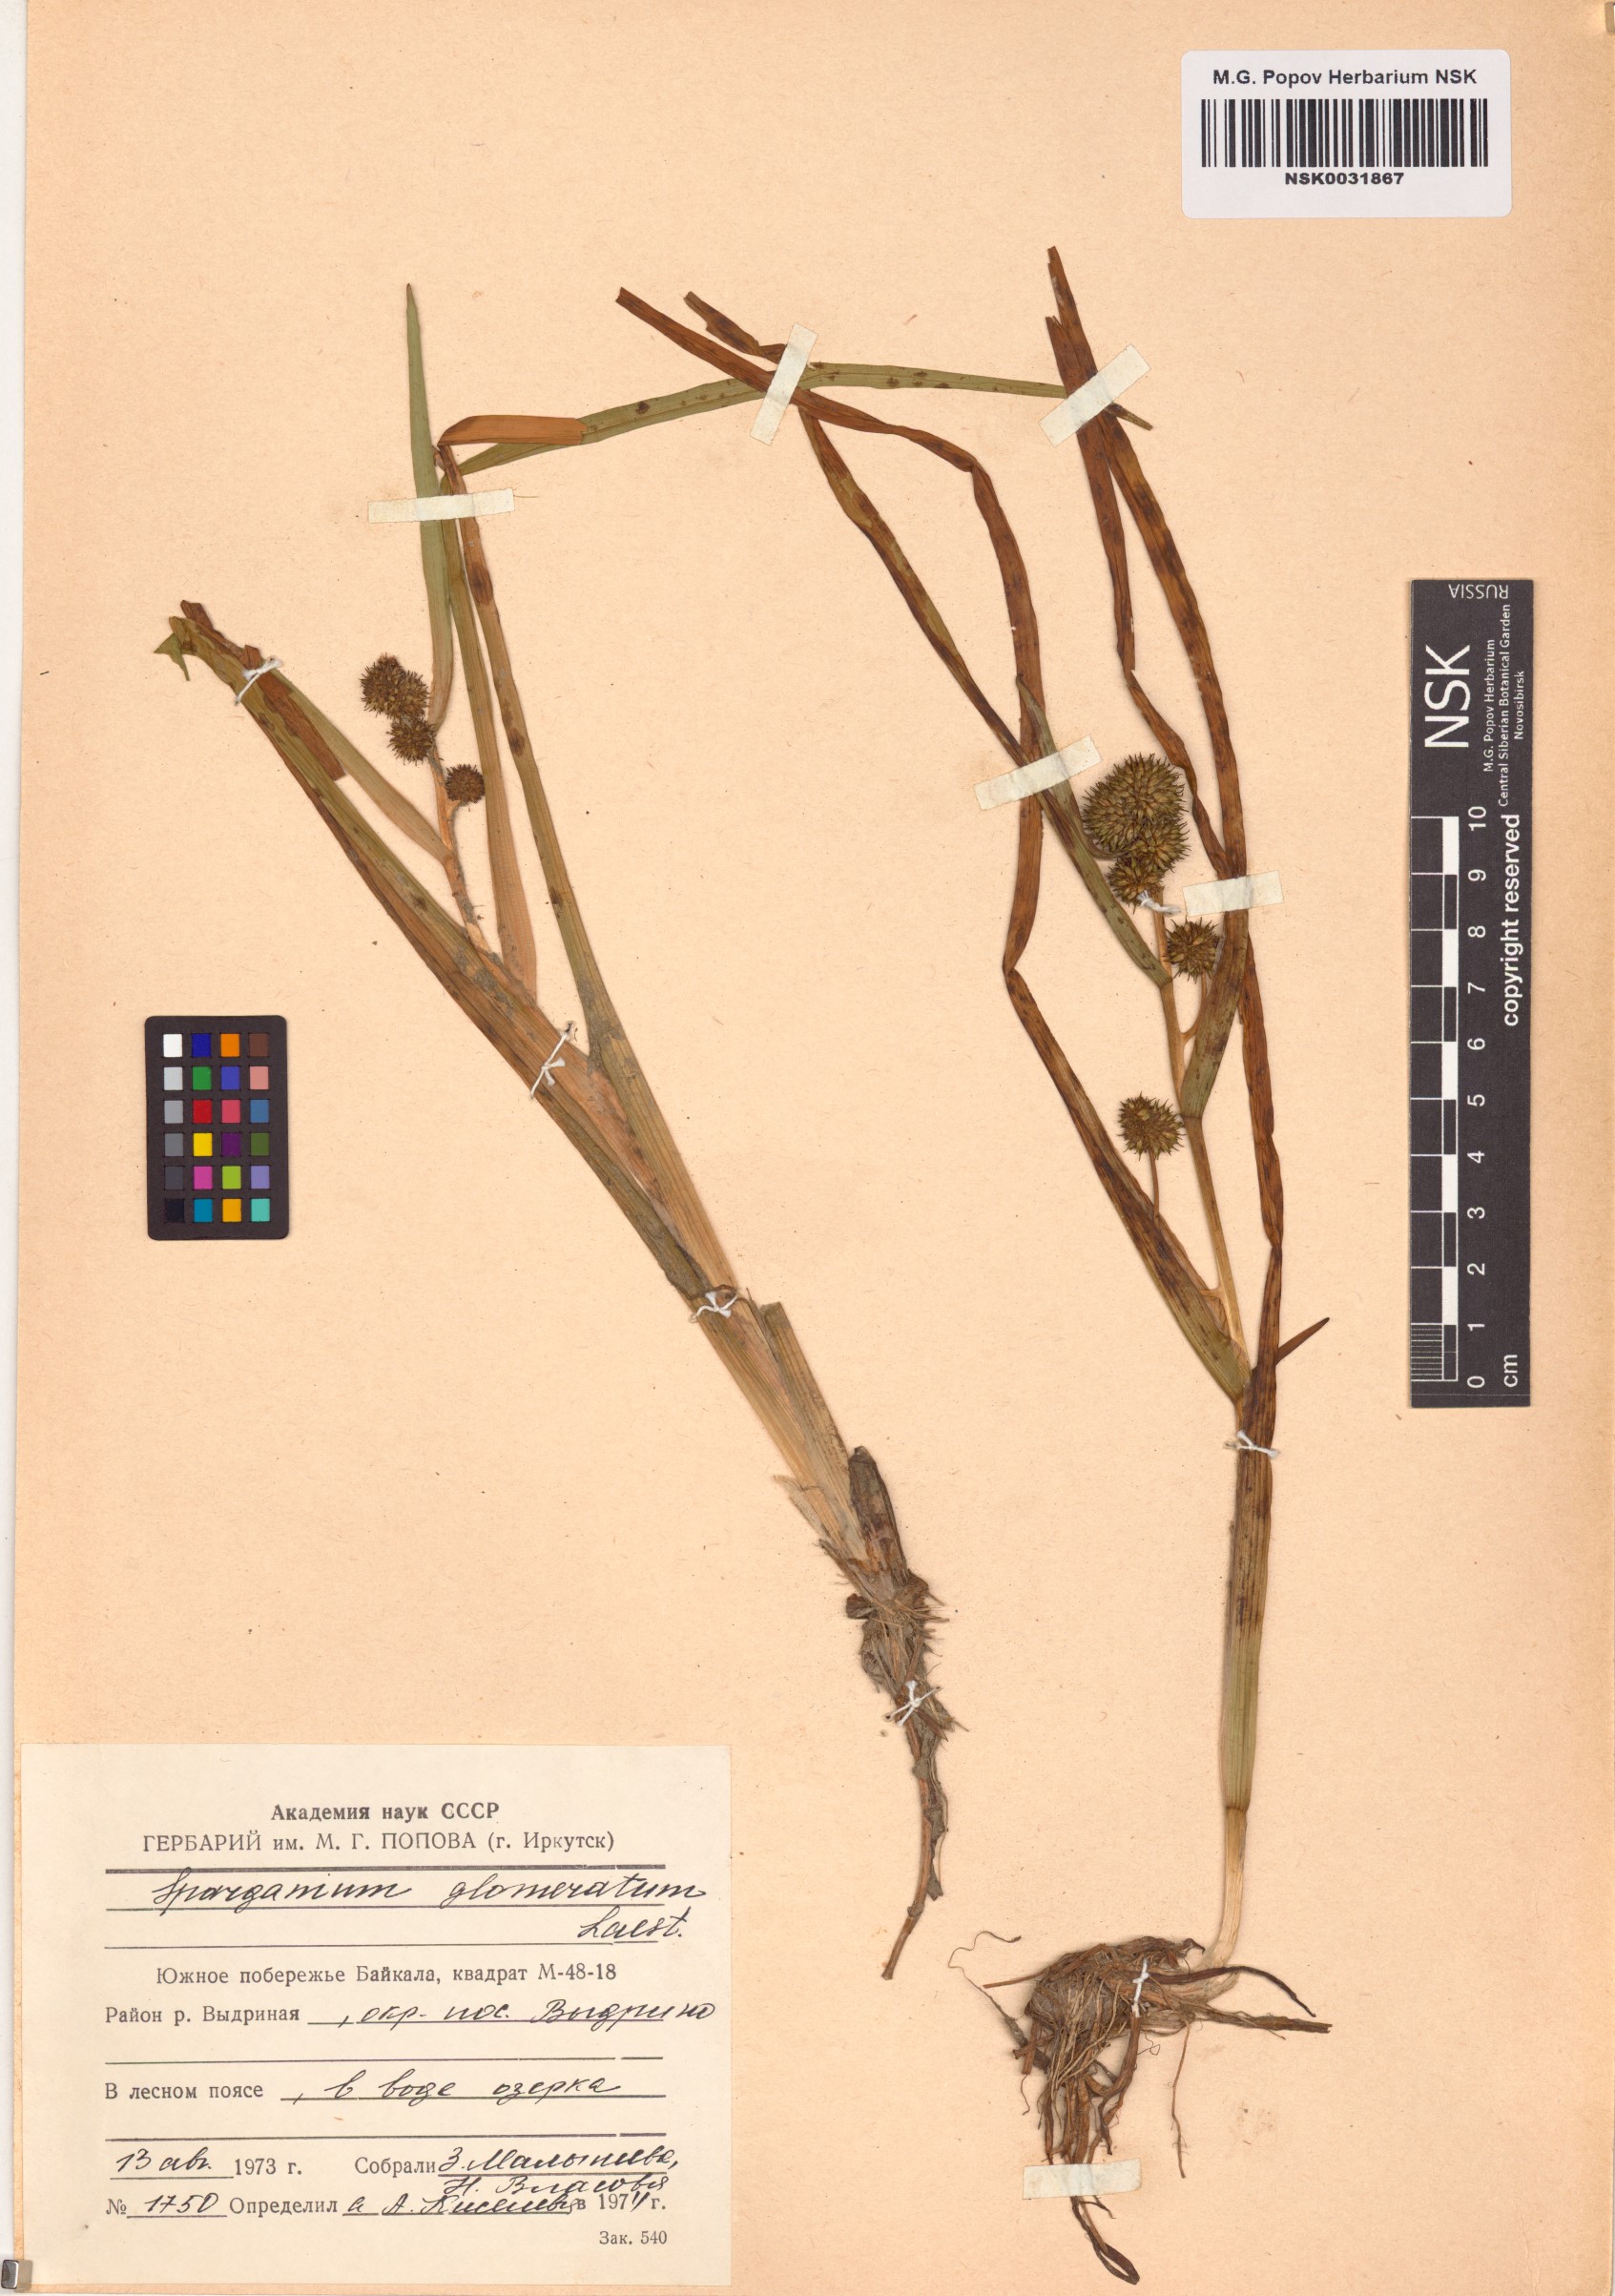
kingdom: Plantae
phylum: Tracheophyta
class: Liliopsida
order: Poales
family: Typhaceae
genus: Sparganium
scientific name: Sparganium glomeratum
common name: Clustered burreed
